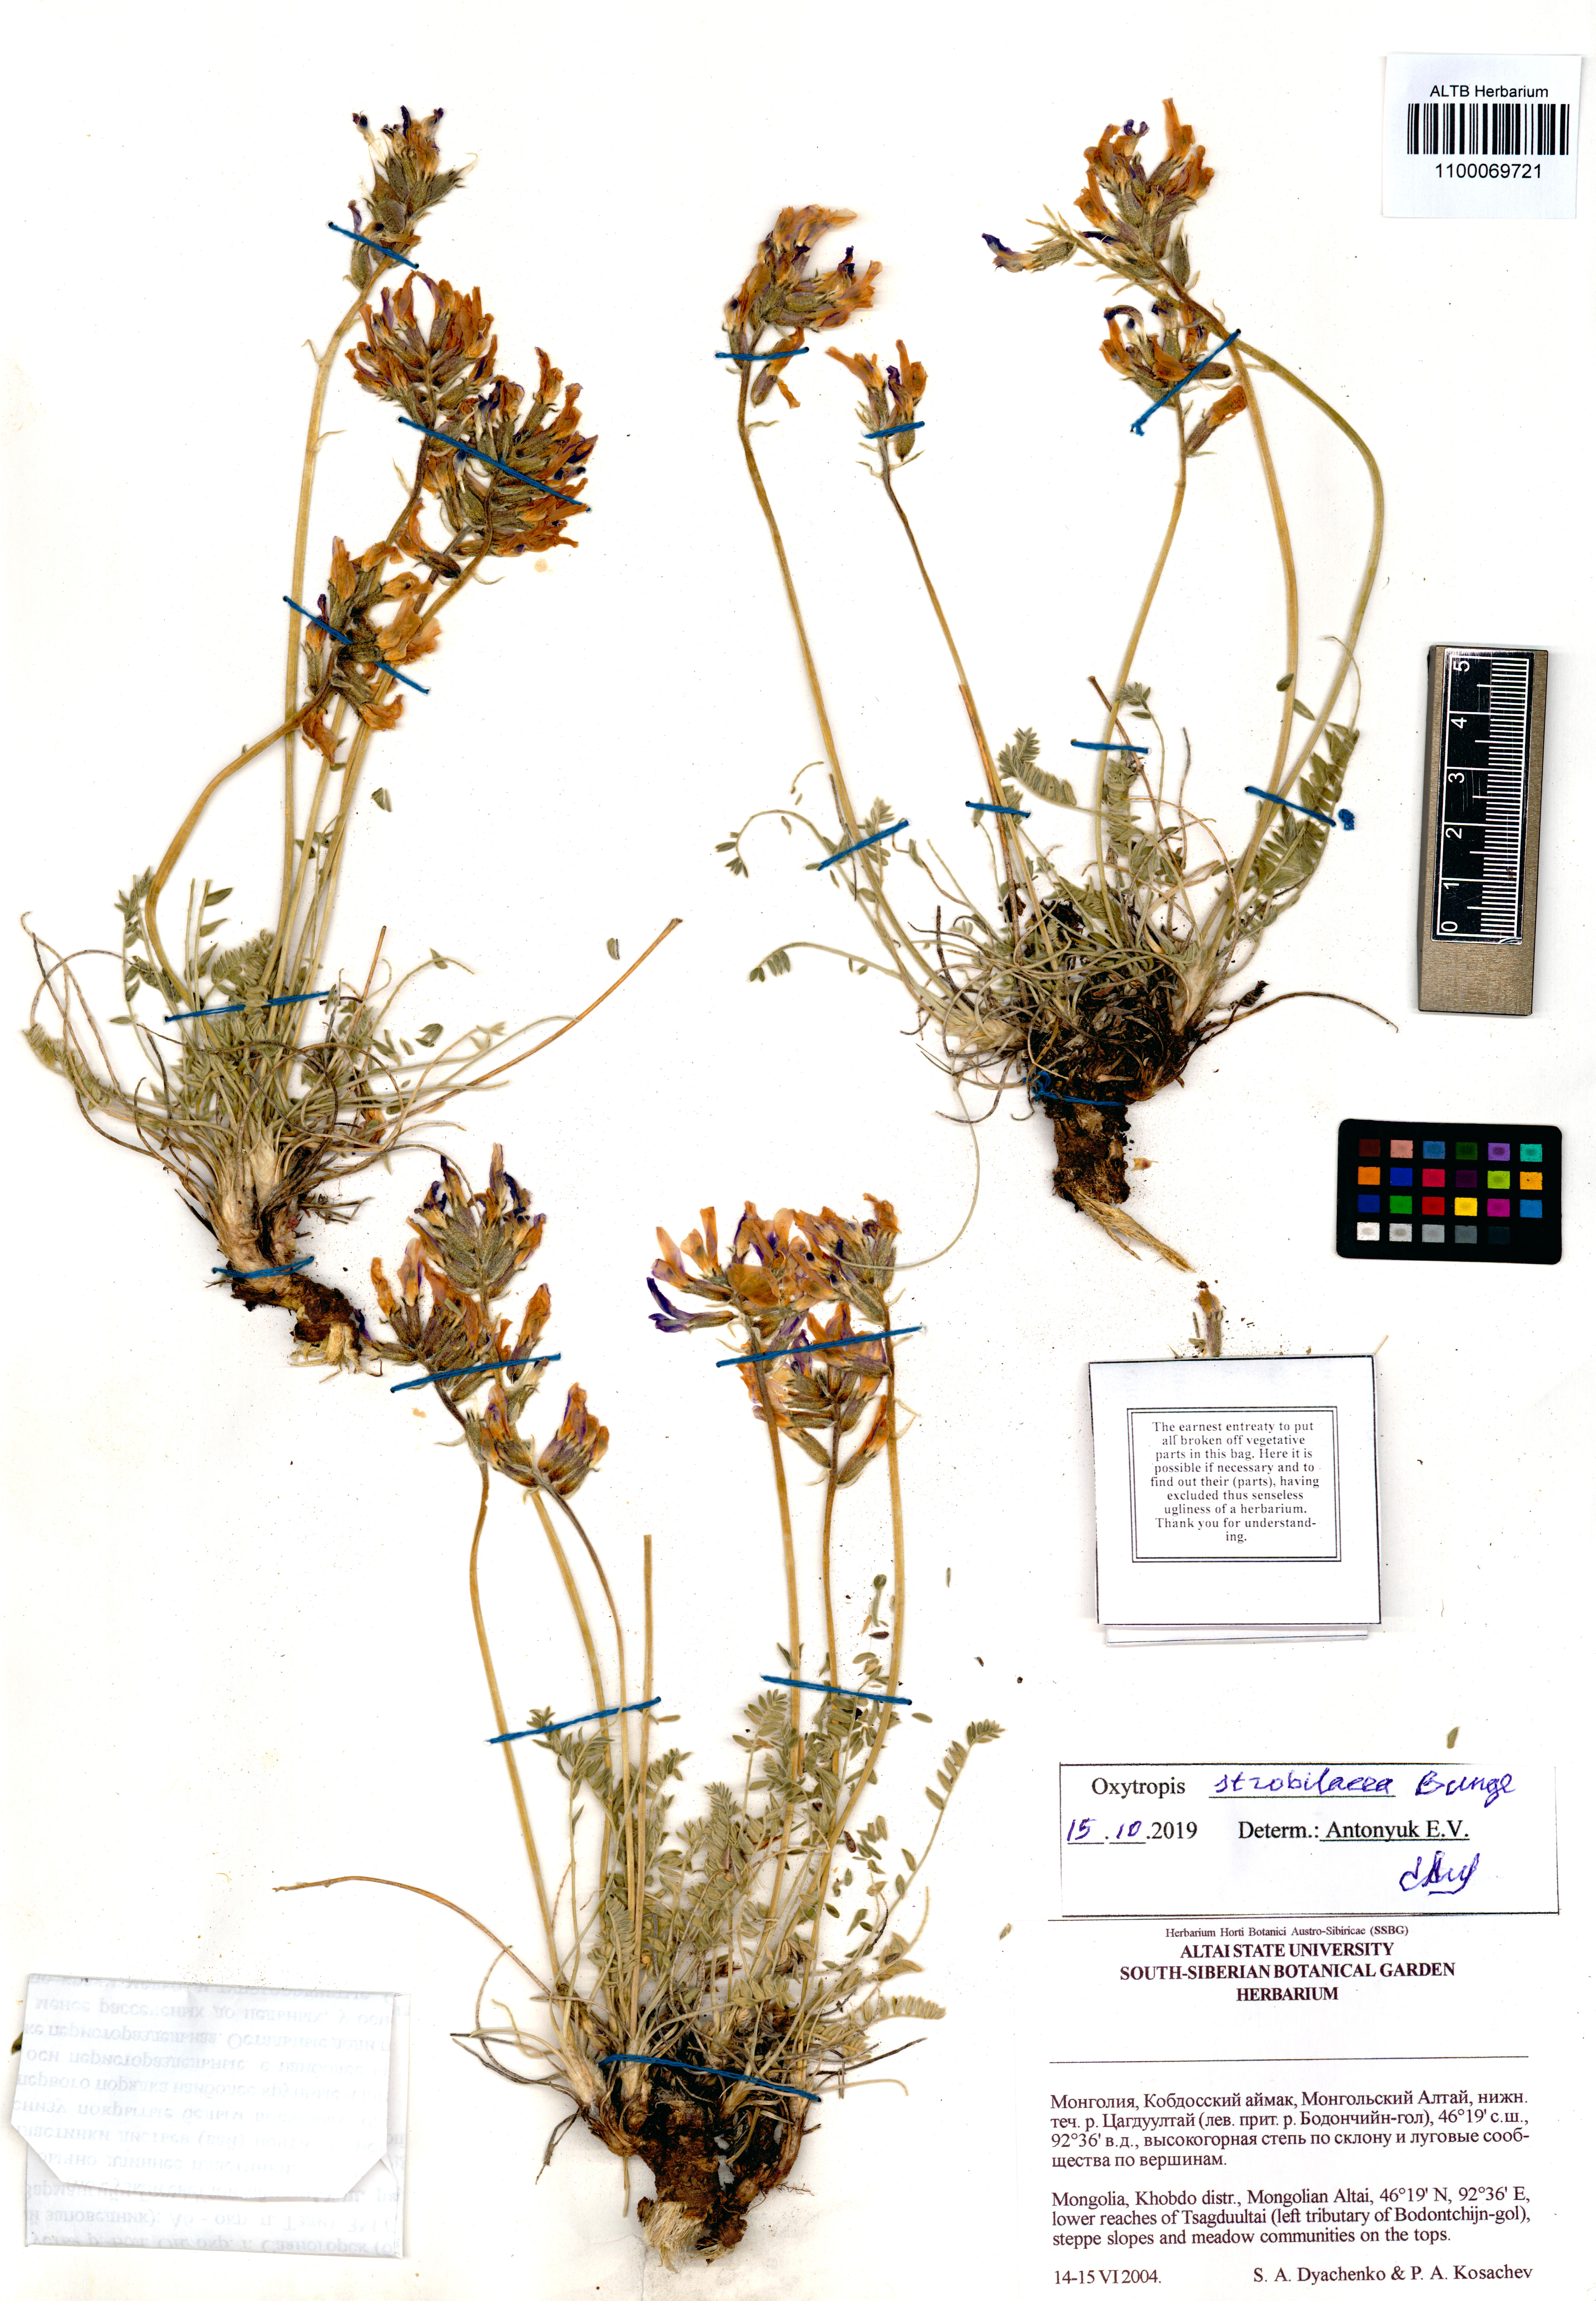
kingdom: Plantae
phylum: Tracheophyta
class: Magnoliopsida
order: Fabales
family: Fabaceae
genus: Oxytropis
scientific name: Oxytropis strobilacea
